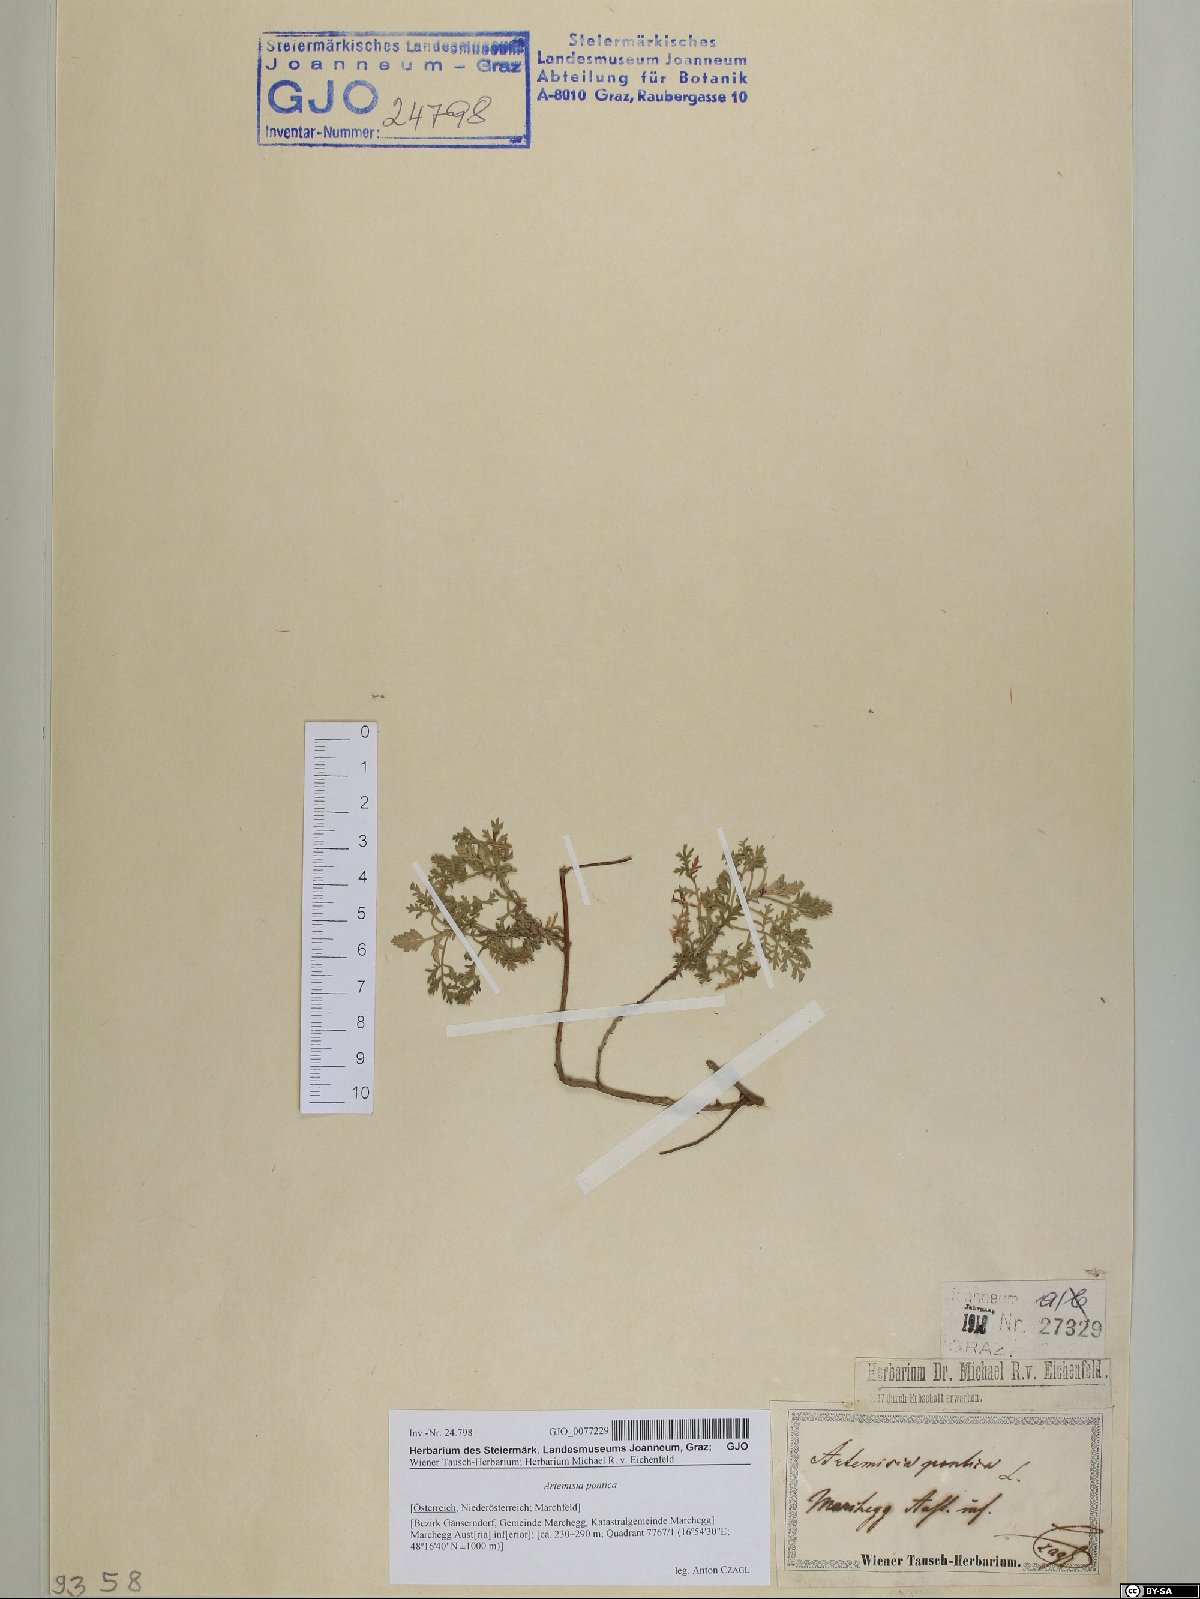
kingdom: Plantae
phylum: Tracheophyta
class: Magnoliopsida
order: Asterales
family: Asteraceae
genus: Artemisia
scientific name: Artemisia pontica
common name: Roman wormwood
